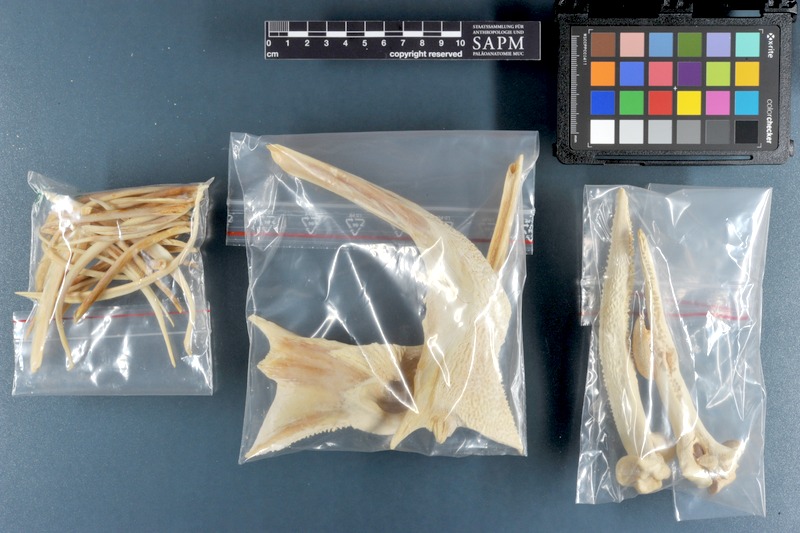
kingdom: Animalia
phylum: Chordata
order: Siluriformes
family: Pimelodidae
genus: Phractocephalus
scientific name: Phractocephalus hemioliopterus
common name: Redtail catfish
